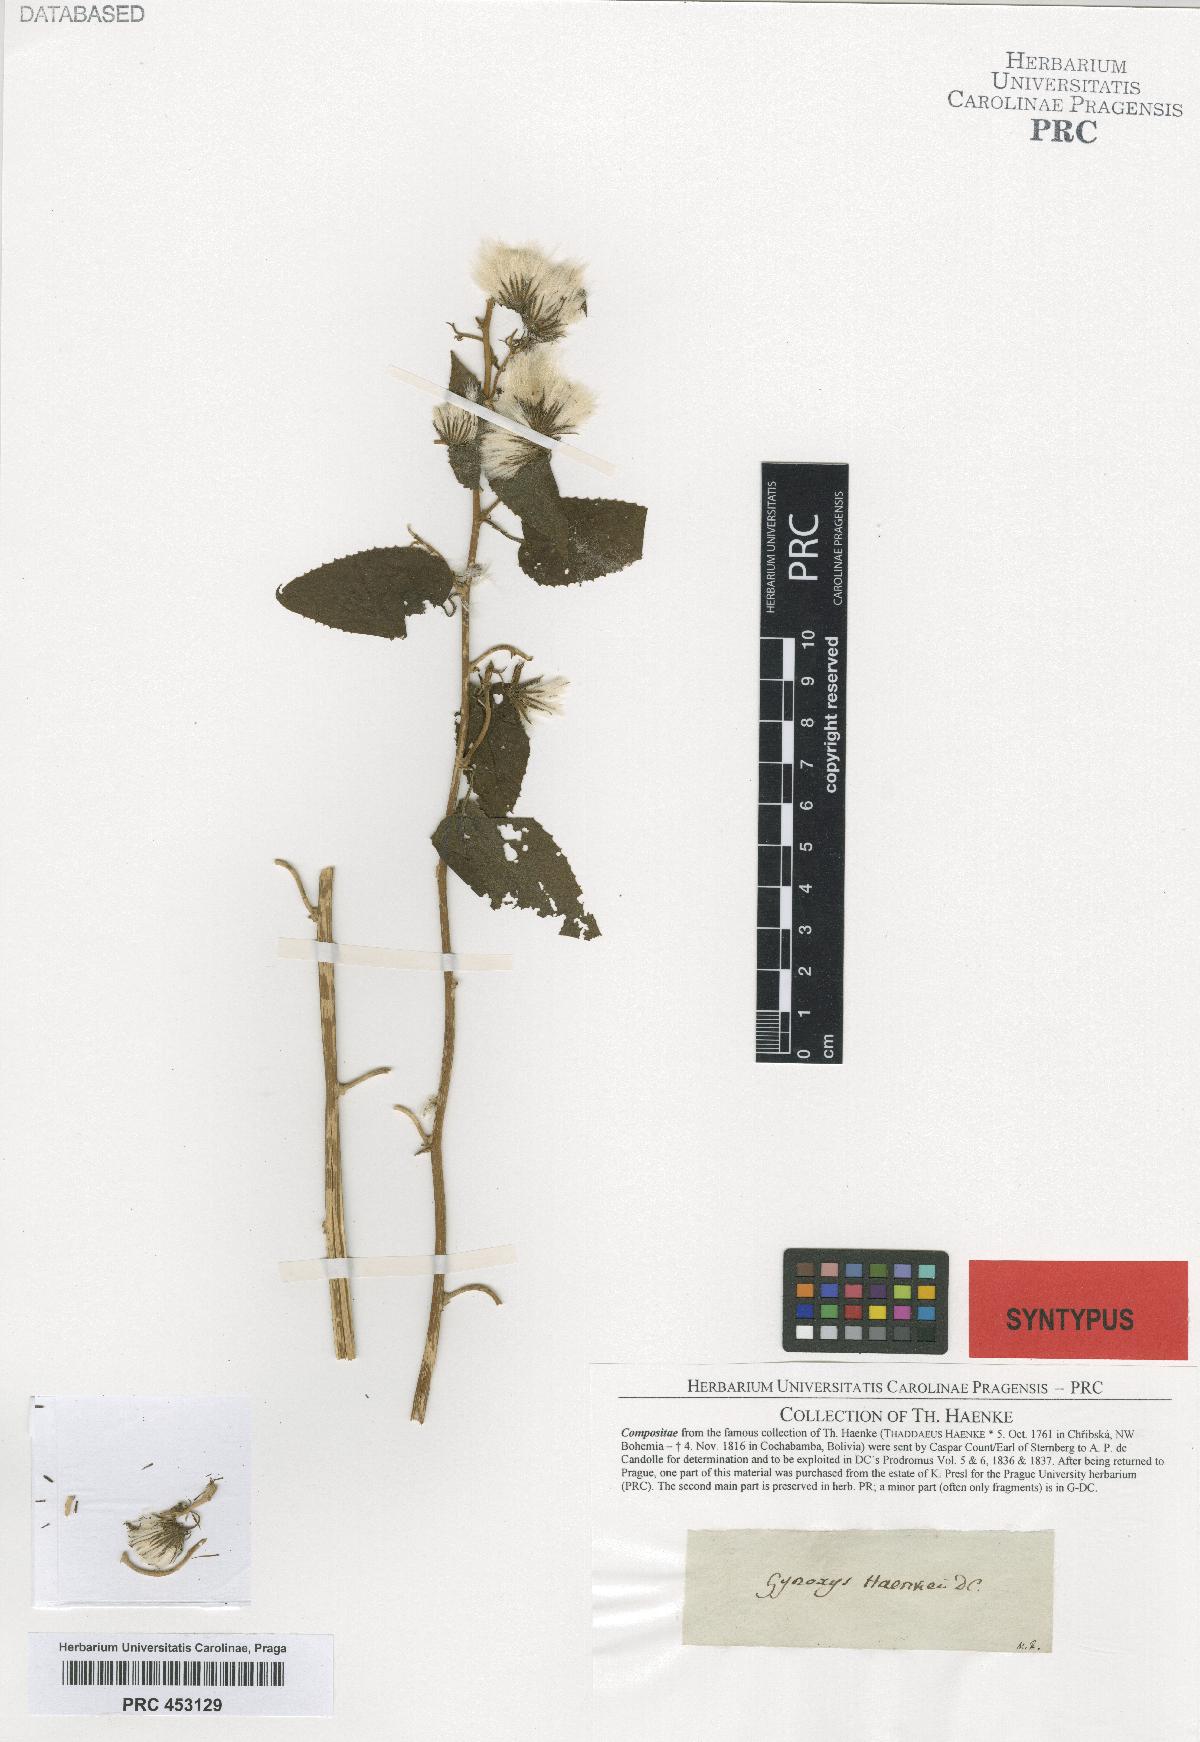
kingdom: Plantae
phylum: Tracheophyta
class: Magnoliopsida
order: Asterales
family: Asteraceae
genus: Pseudogynoxys
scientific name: Pseudogynoxys haenkei
